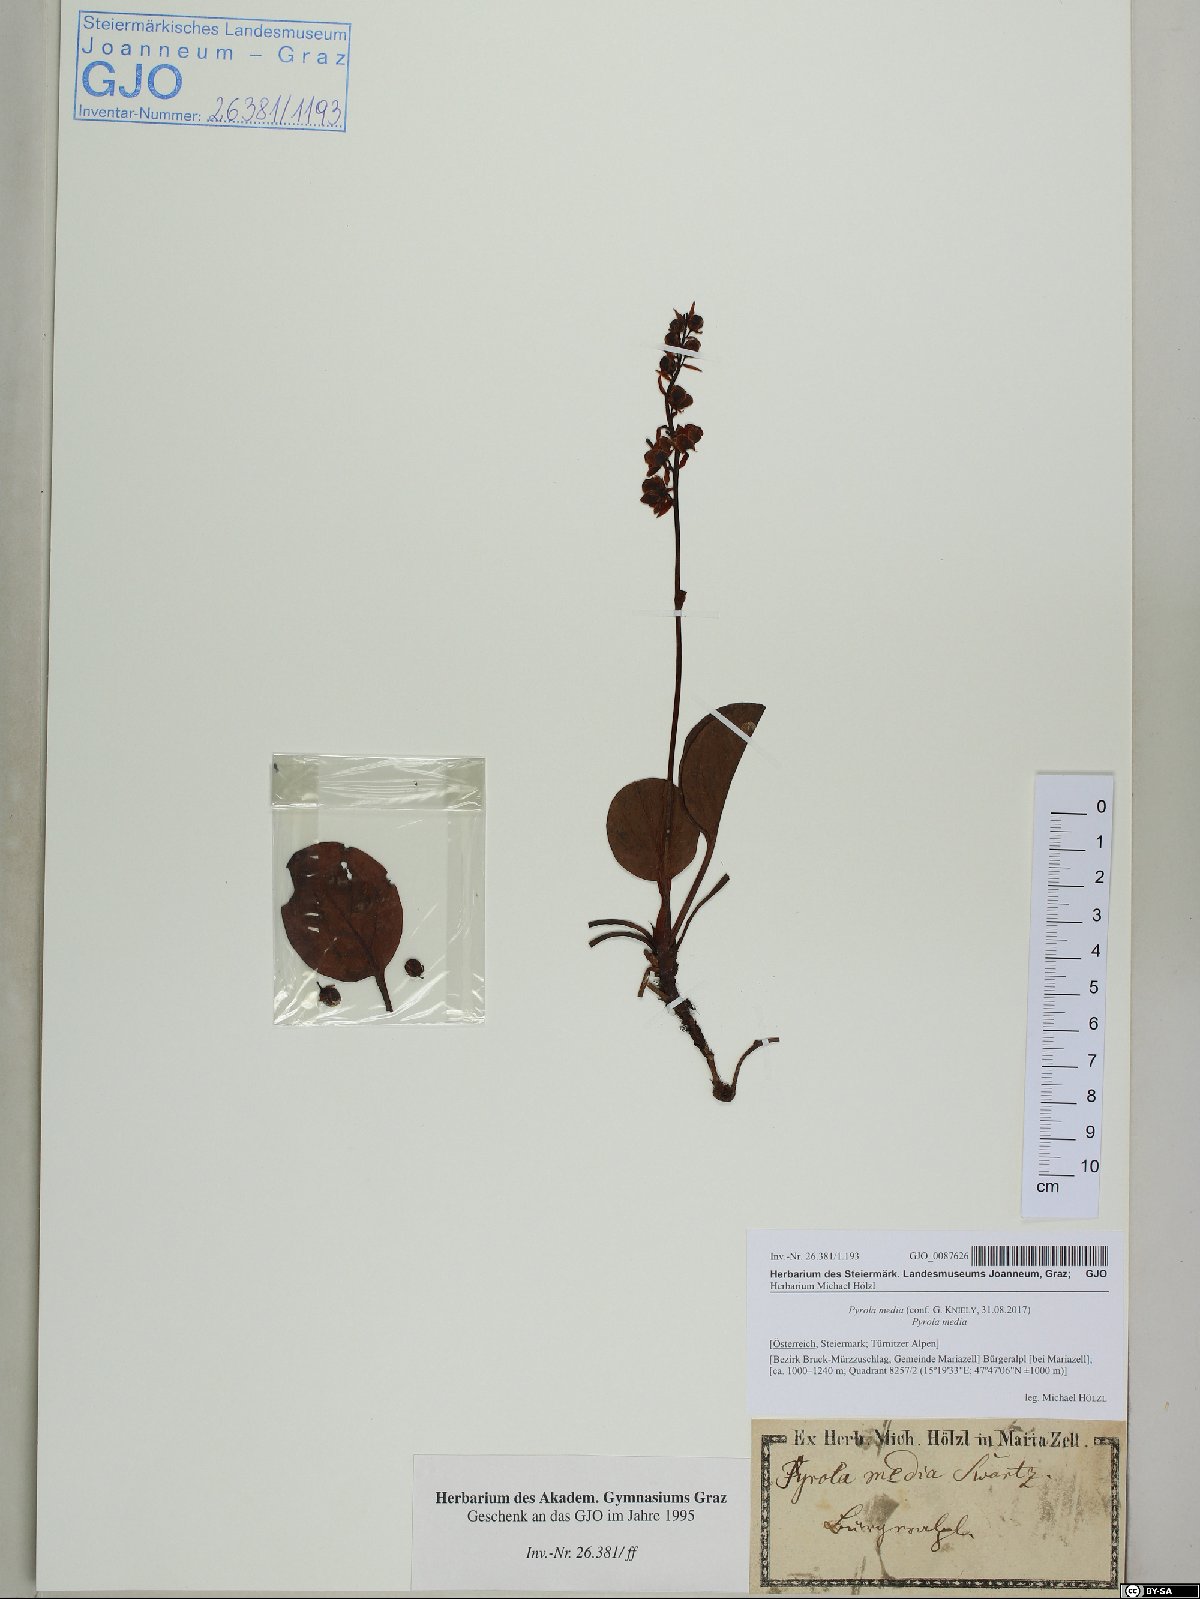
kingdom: Plantae
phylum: Tracheophyta
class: Magnoliopsida
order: Ericales
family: Ericaceae
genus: Pyrola
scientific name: Pyrola media
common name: Intermediate wintergreen
